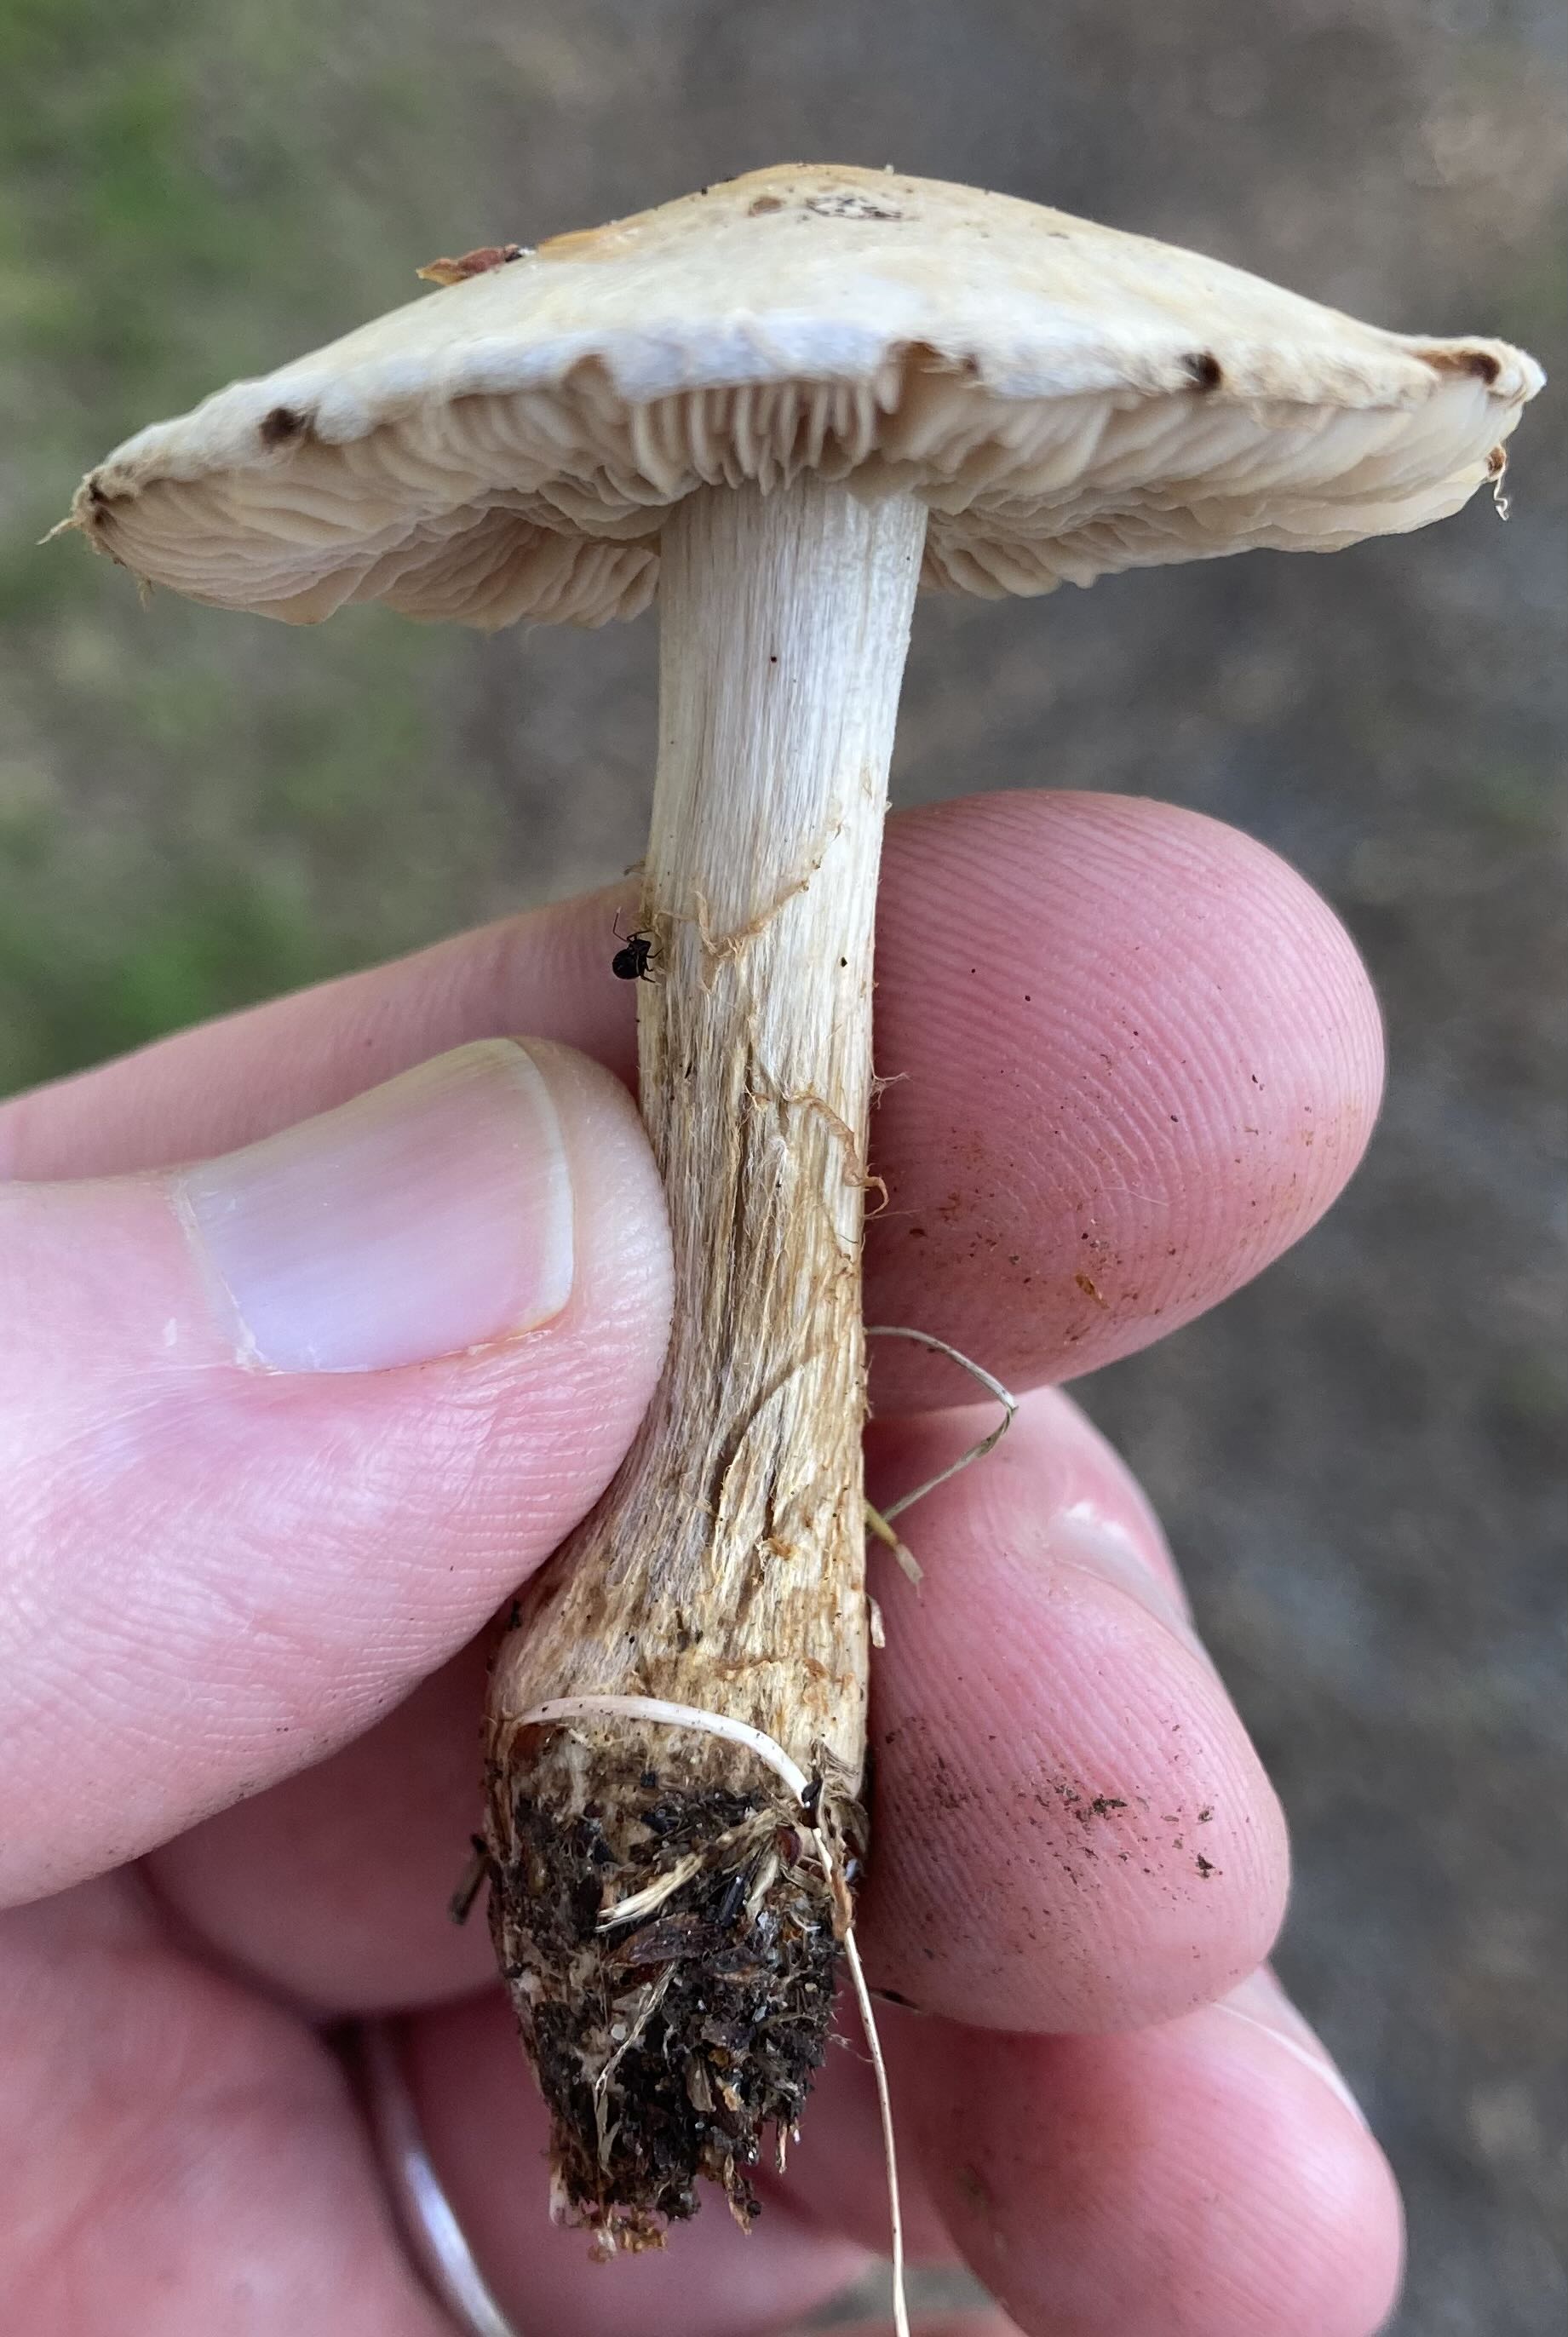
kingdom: Fungi
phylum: Basidiomycota
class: Agaricomycetes
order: Agaricales
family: Hymenogastraceae
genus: Hebeloma
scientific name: Hebeloma
